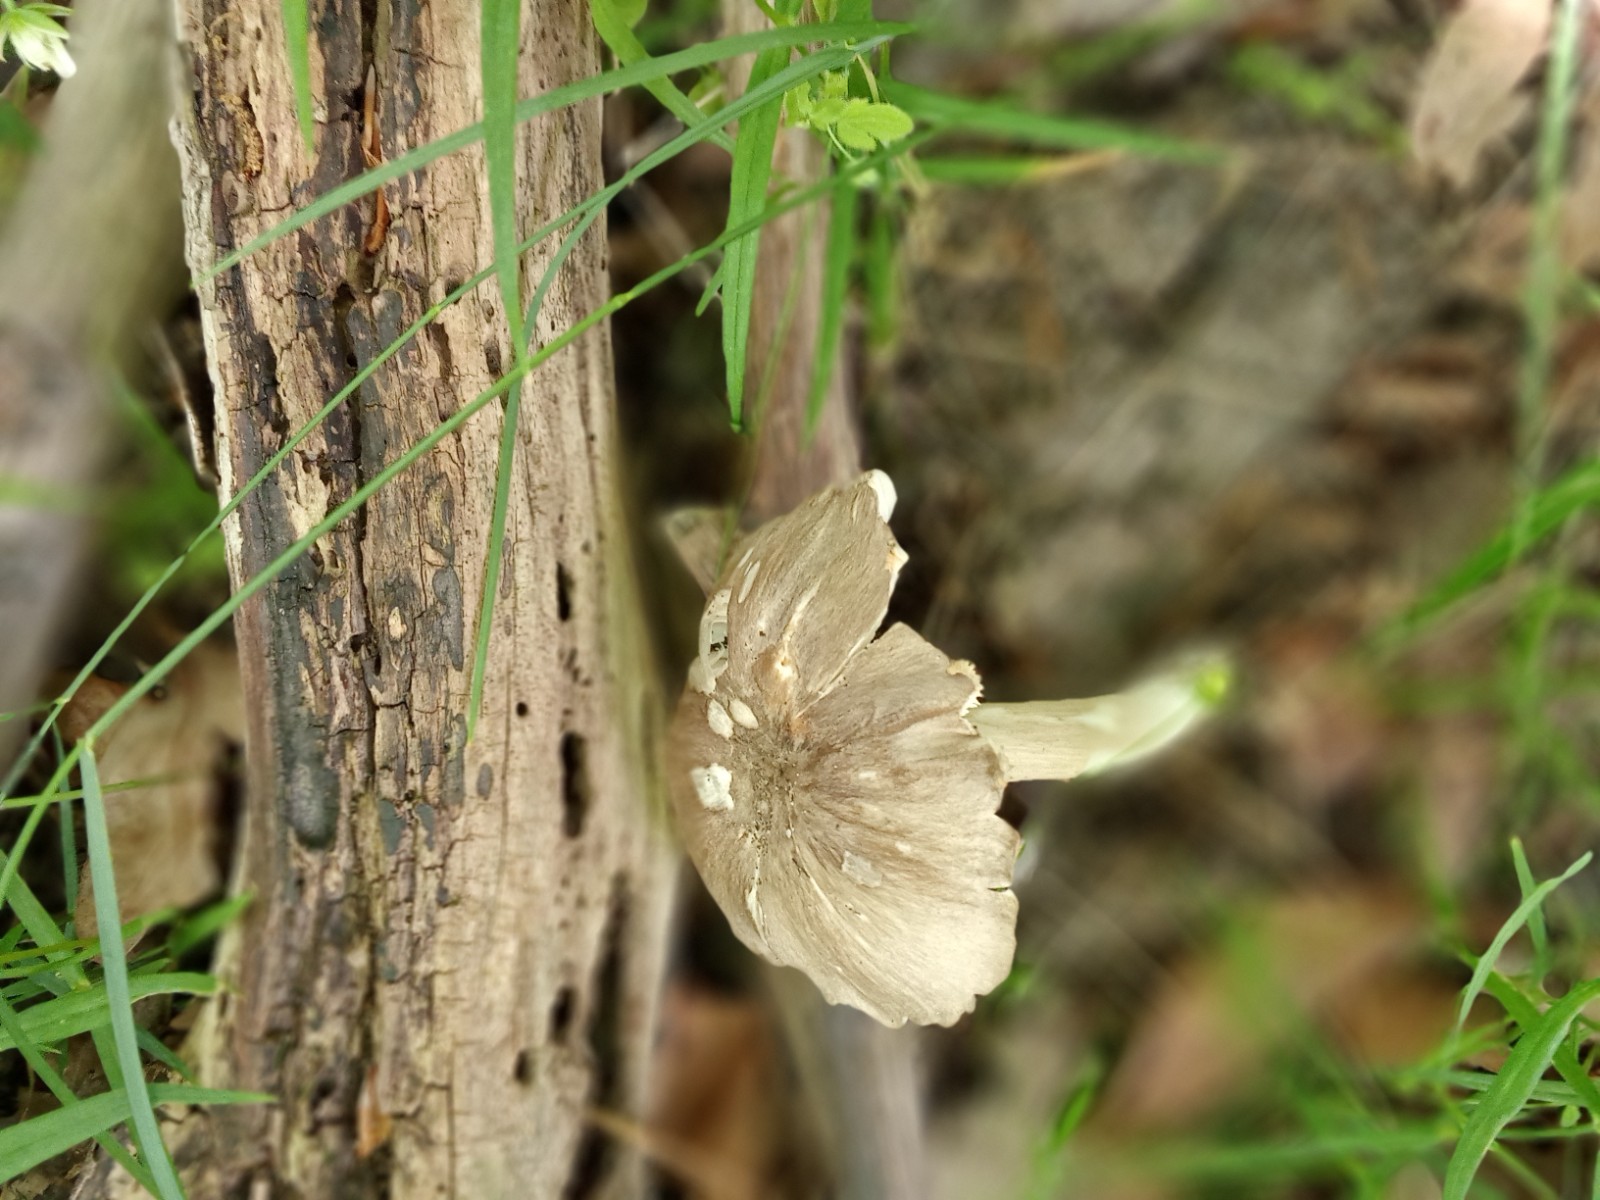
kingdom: Fungi
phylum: Basidiomycota
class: Agaricomycetes
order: Agaricales
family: Tricholomataceae
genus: Megacollybia
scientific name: Megacollybia platyphylla
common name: bredbladet væbnerhat
